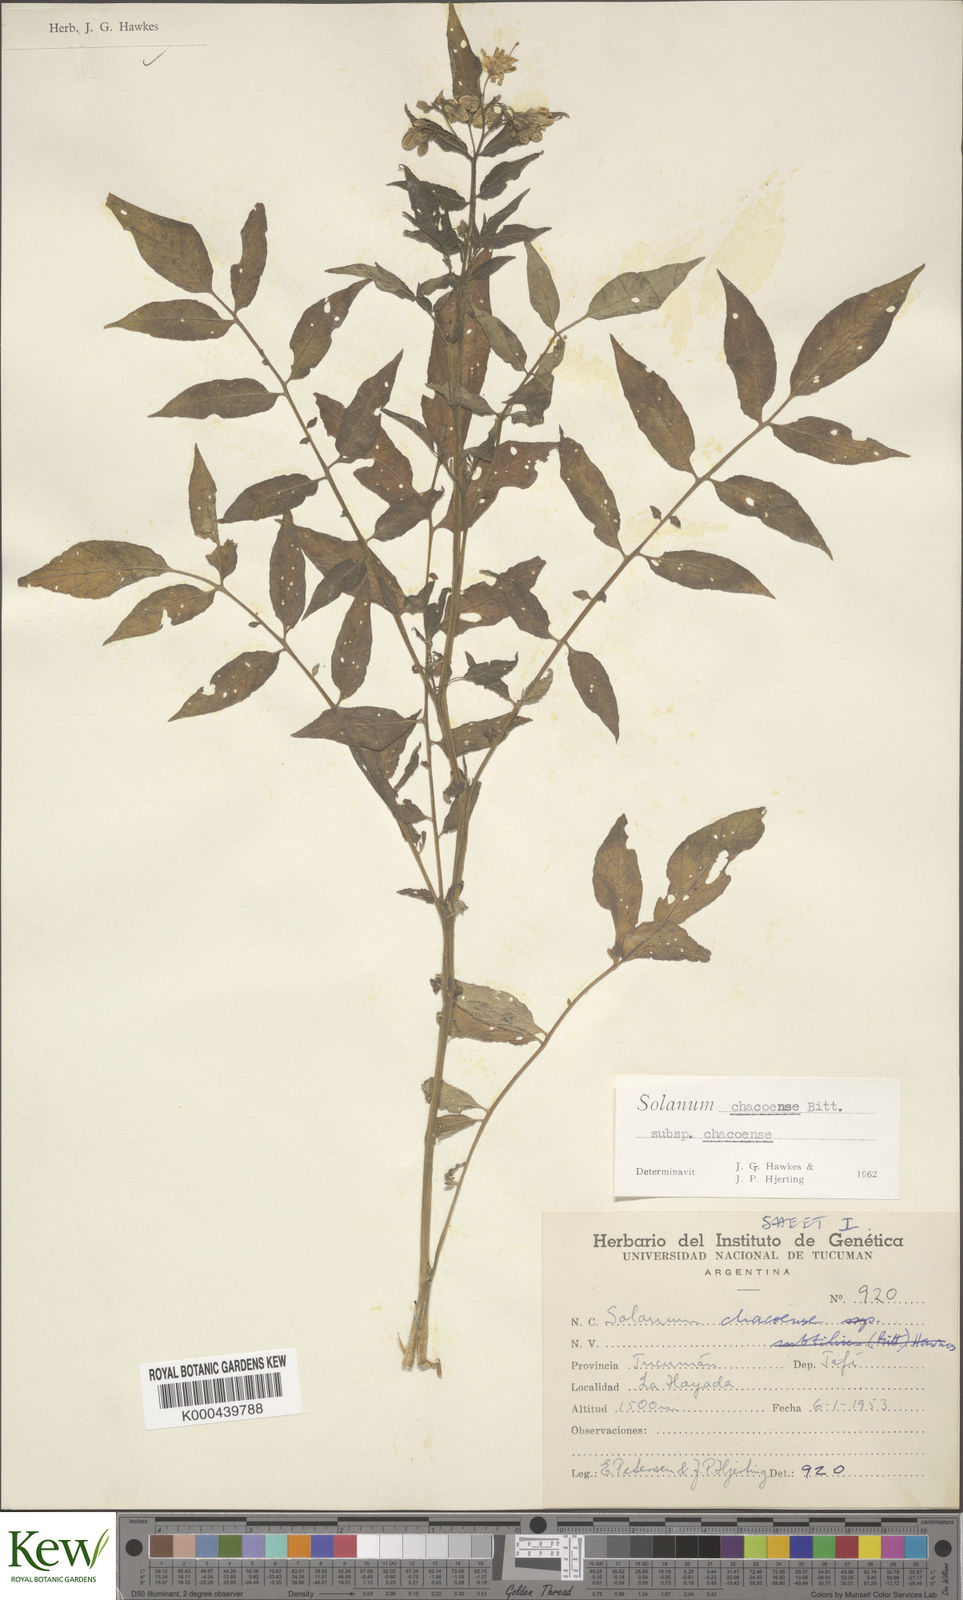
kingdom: Plantae
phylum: Tracheophyta
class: Magnoliopsida
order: Solanales
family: Solanaceae
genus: Solanum
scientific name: Solanum chacoense
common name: Chaco potato
